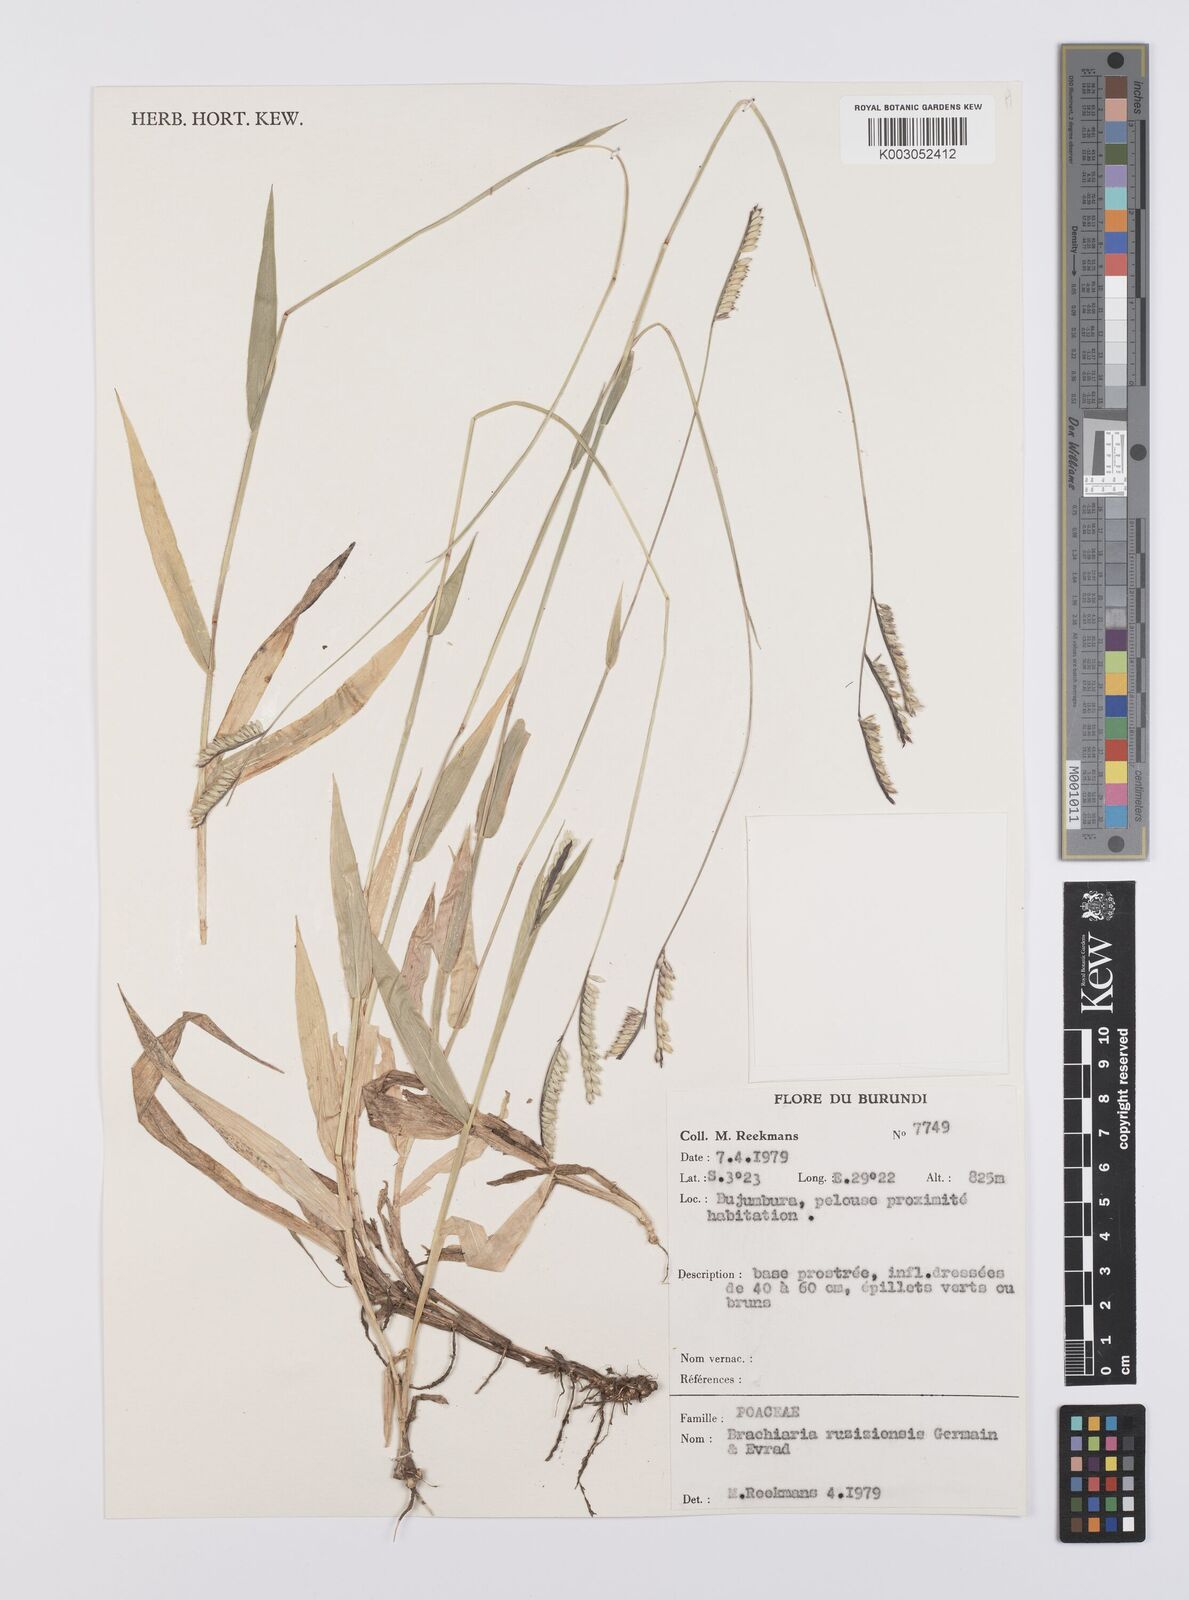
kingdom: Plantae
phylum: Tracheophyta
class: Liliopsida
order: Poales
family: Poaceae
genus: Urochloa
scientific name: Urochloa eminii
